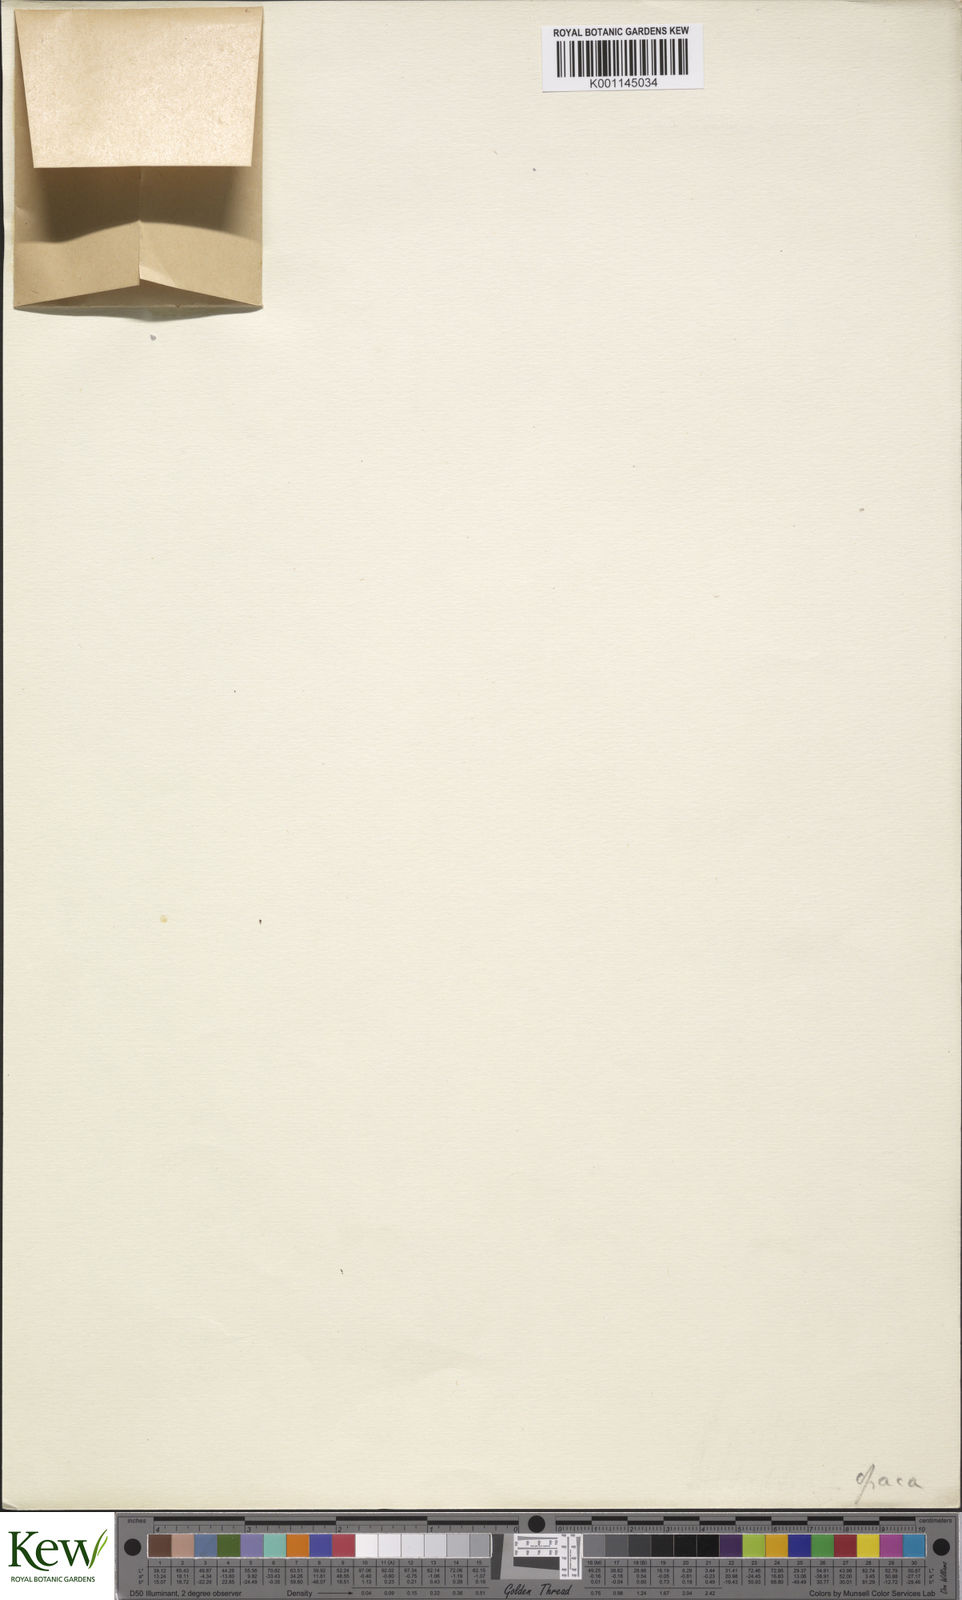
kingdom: Plantae
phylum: Tracheophyta
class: Liliopsida
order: Dioscoreales
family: Dioscoreaceae
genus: Dioscorea
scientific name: Dioscorea opaca
